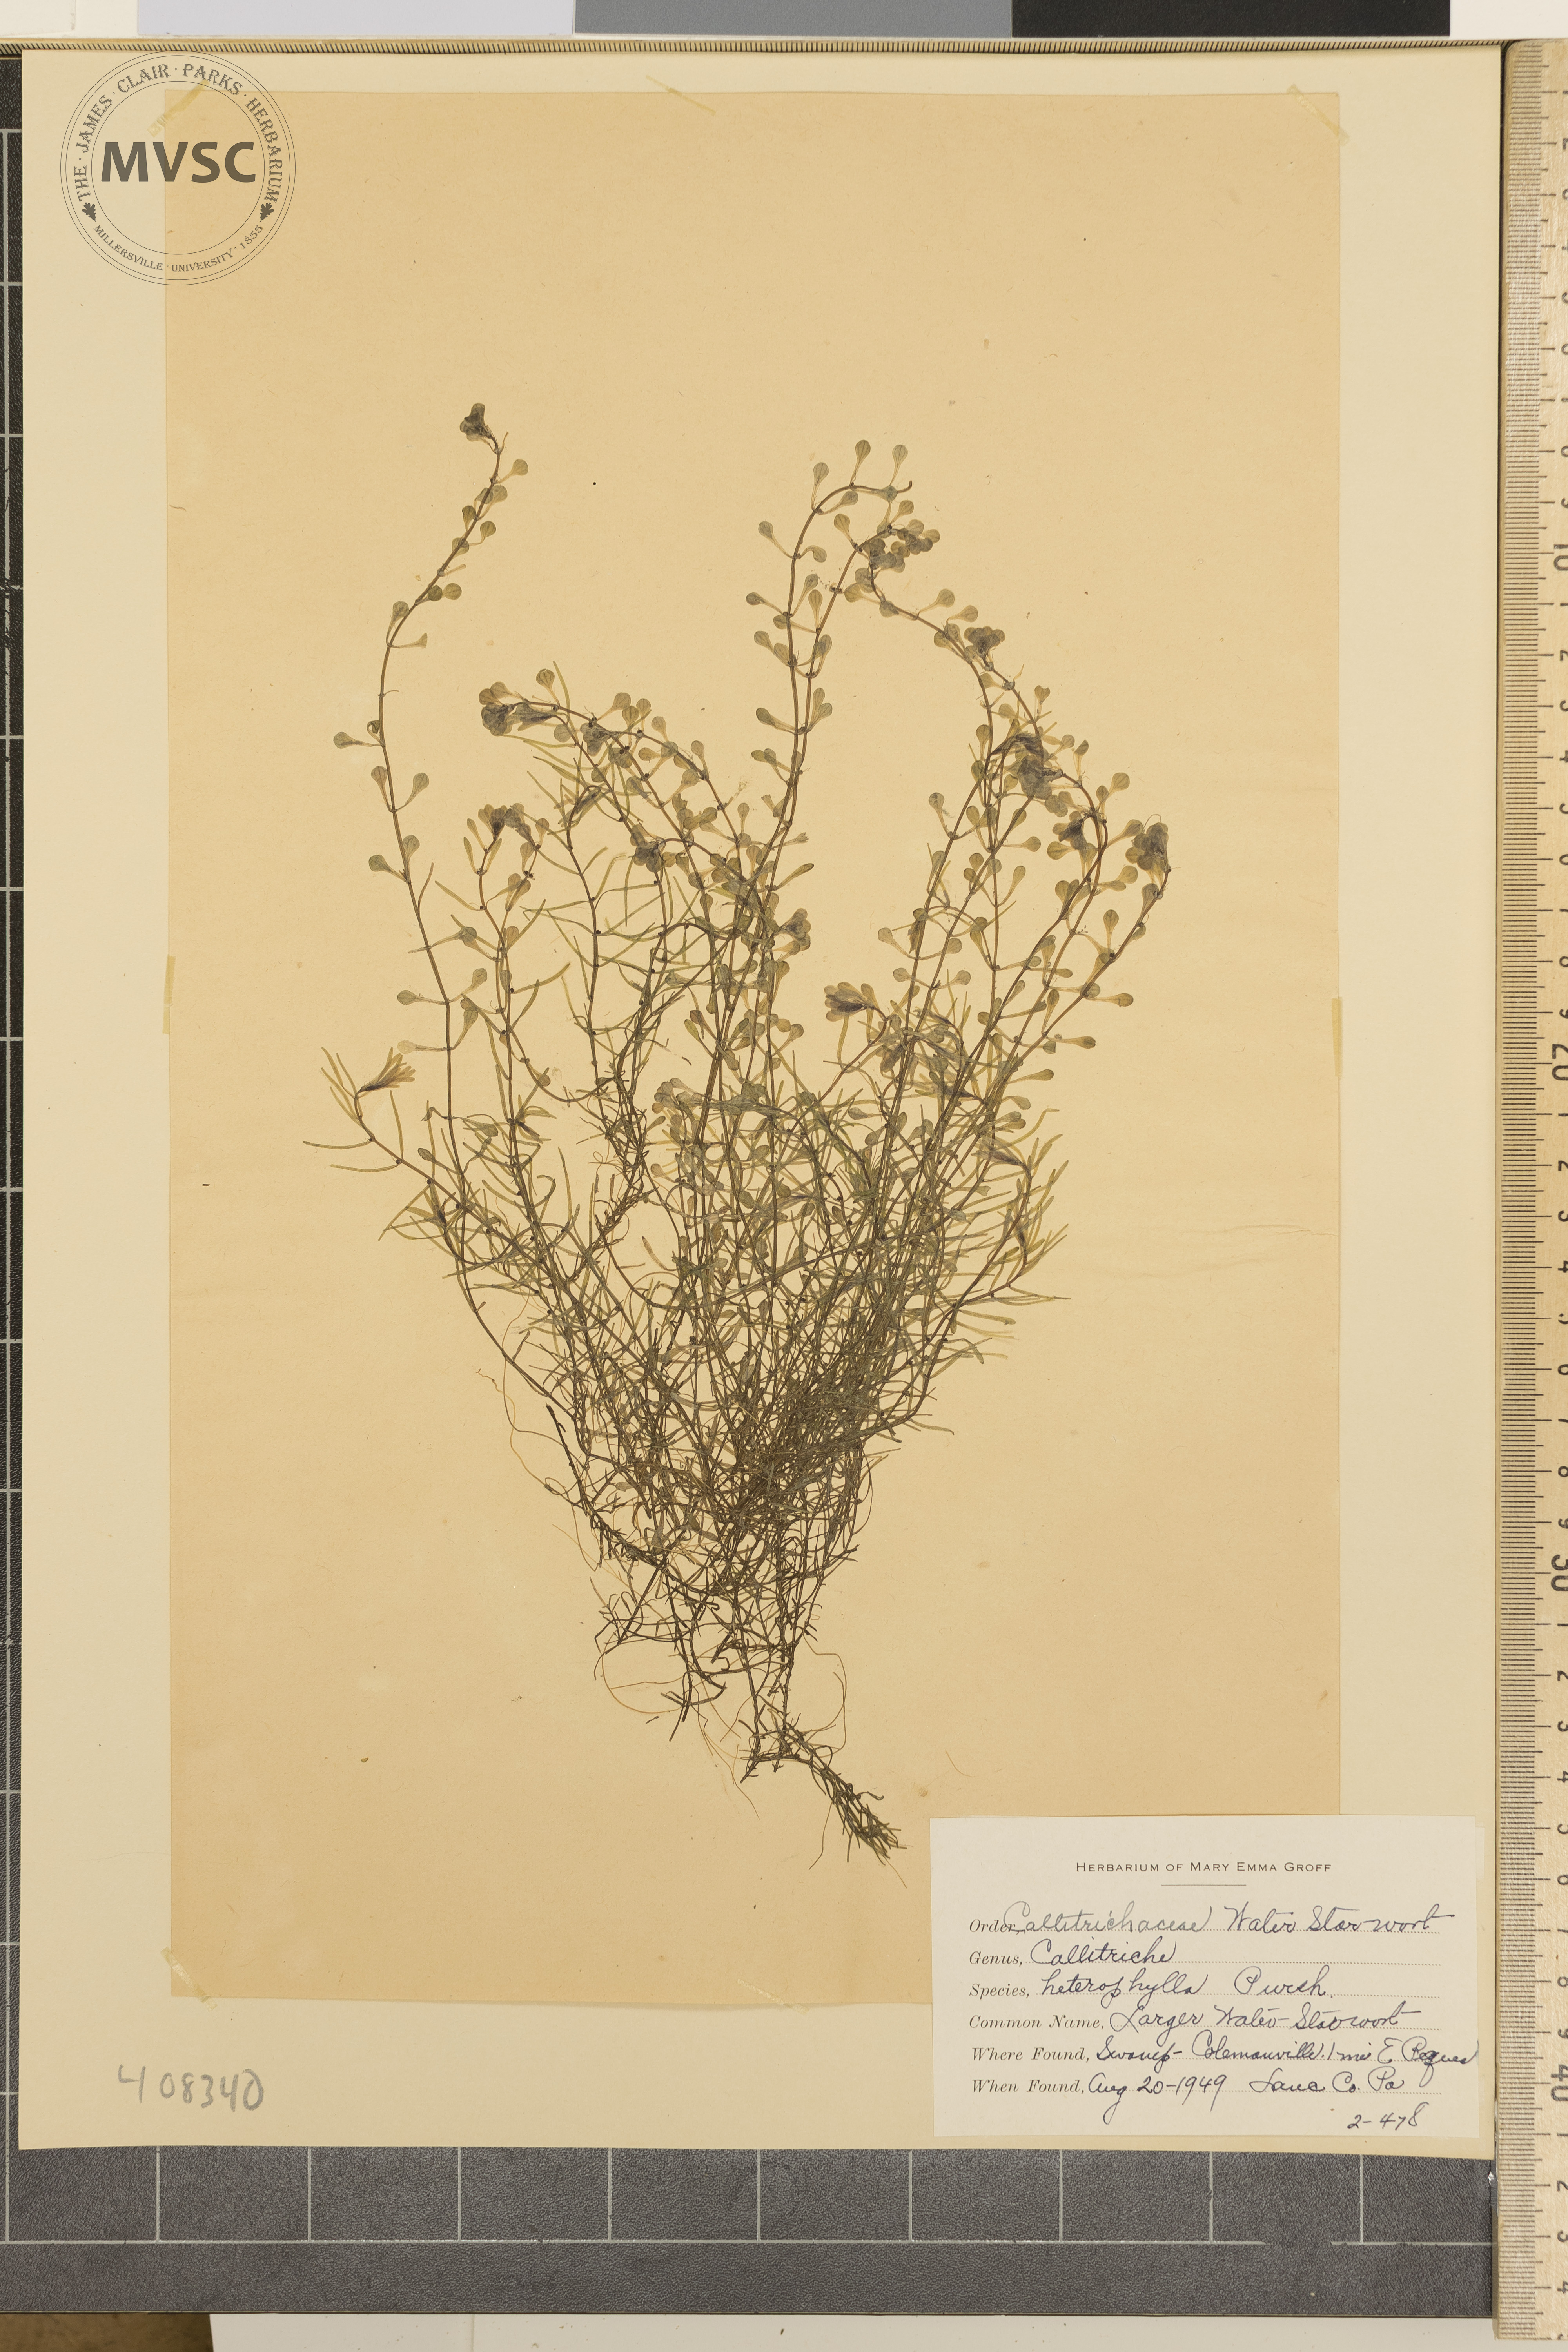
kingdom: Plantae
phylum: Tracheophyta
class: Magnoliopsida
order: Lamiales
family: Plantaginaceae
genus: Callitriche
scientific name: Callitriche heterophylla
